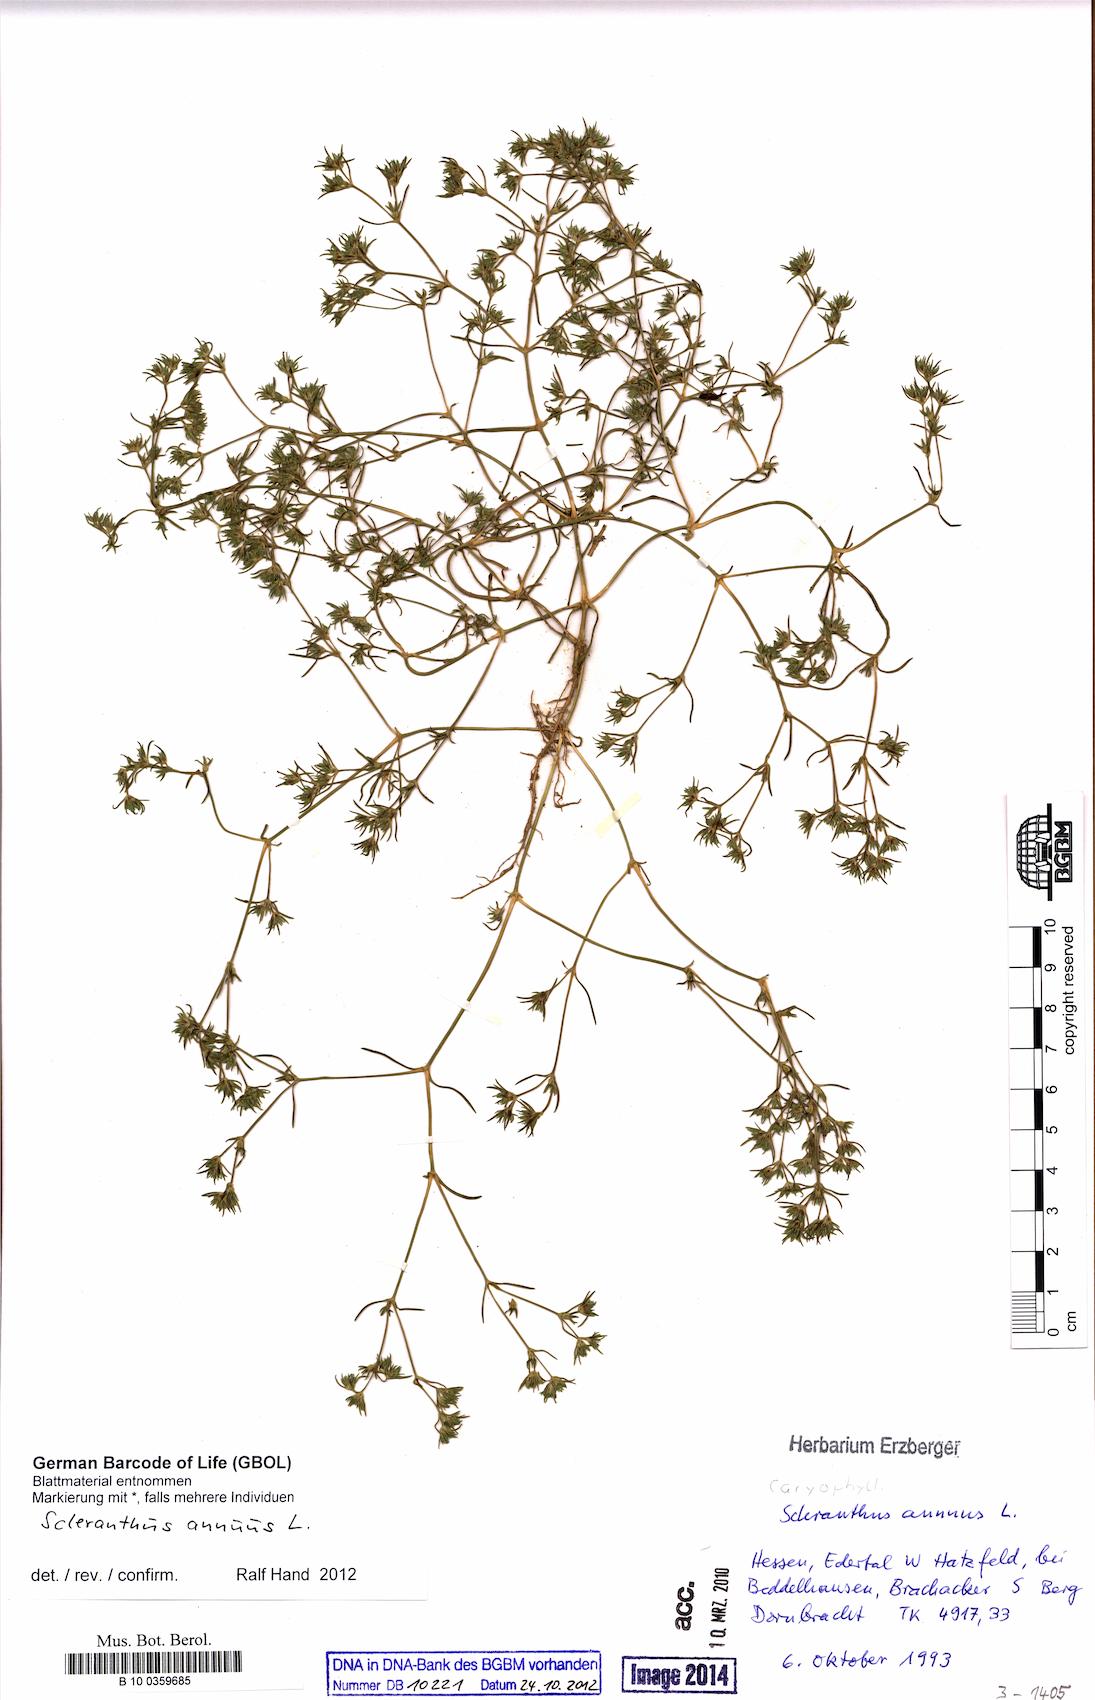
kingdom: Plantae
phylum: Tracheophyta
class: Magnoliopsida
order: Caryophyllales
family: Caryophyllaceae
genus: Scleranthus
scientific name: Scleranthus annuus
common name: Annual knawel
